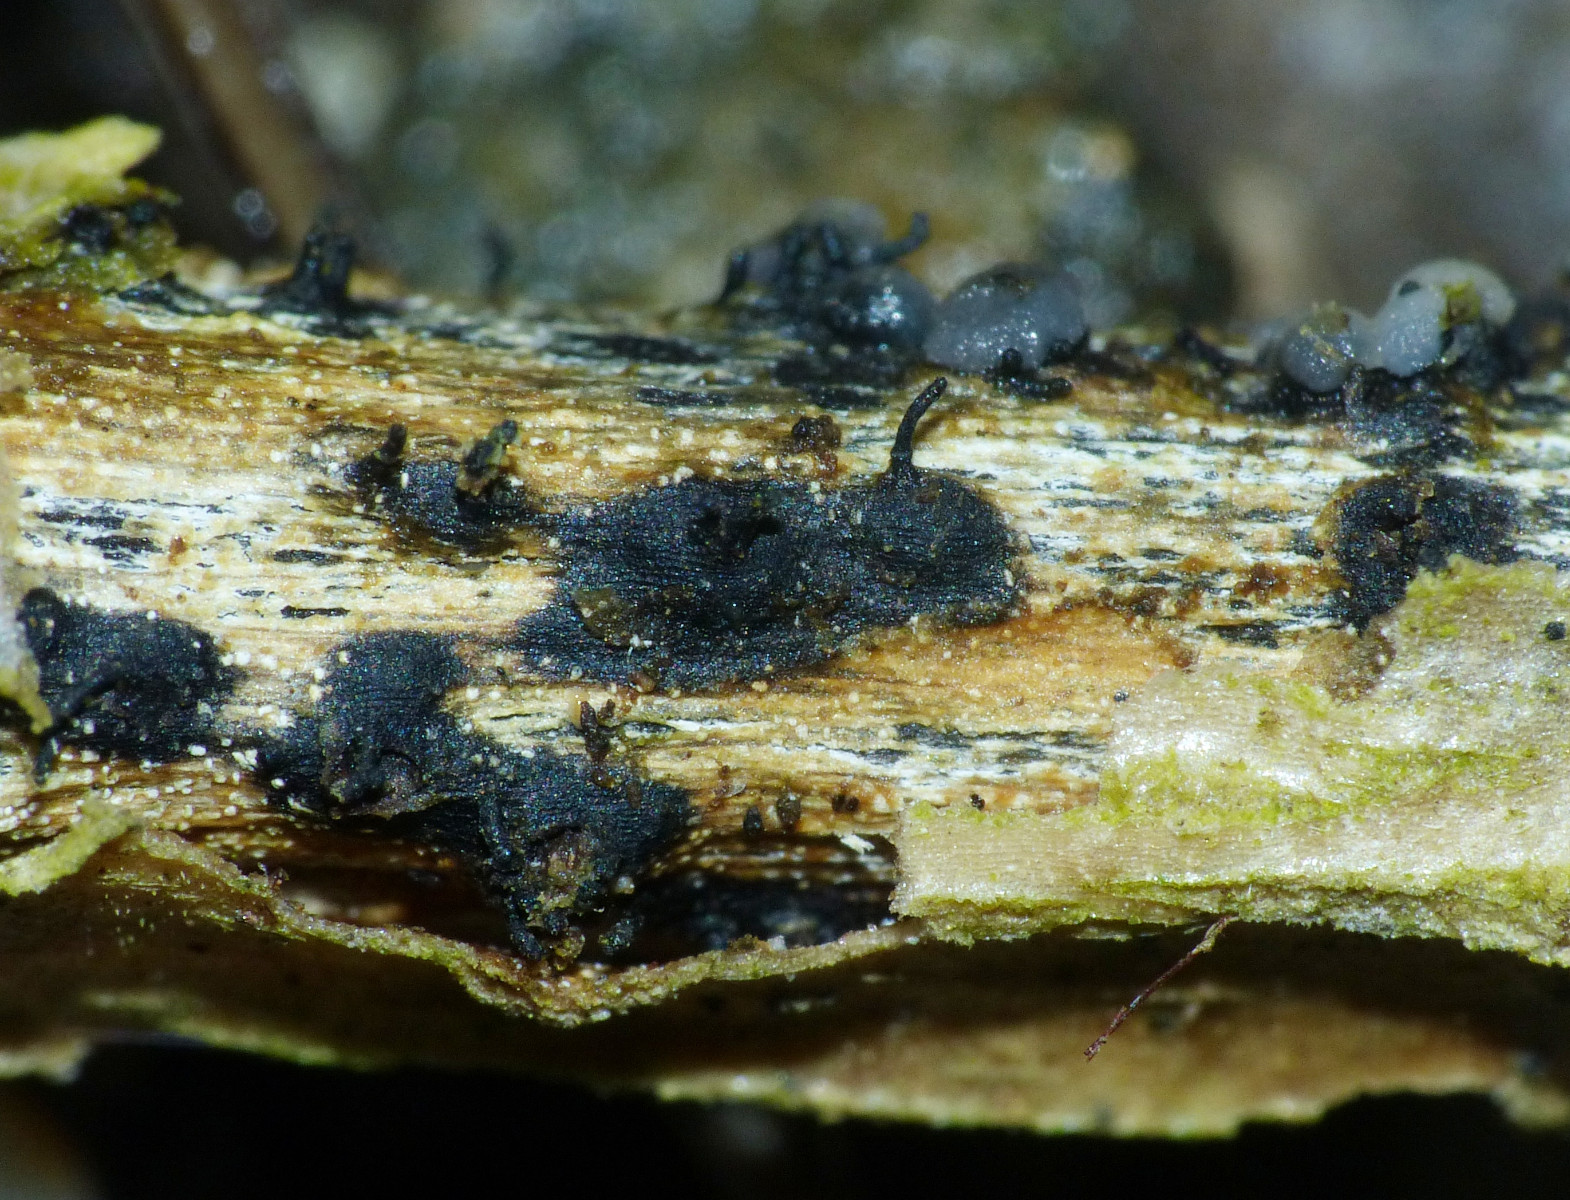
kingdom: Fungi
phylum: Ascomycota
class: Sordariomycetes
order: Diaporthales
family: Diaporthaceae
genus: Diaporthe
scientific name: Diaporthe dulcamarae
